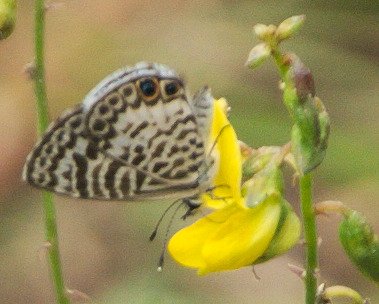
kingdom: Animalia
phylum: Arthropoda
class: Insecta
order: Lepidoptera
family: Lycaenidae
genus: Leptotes
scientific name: Leptotes cassius
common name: Cassius Blue
